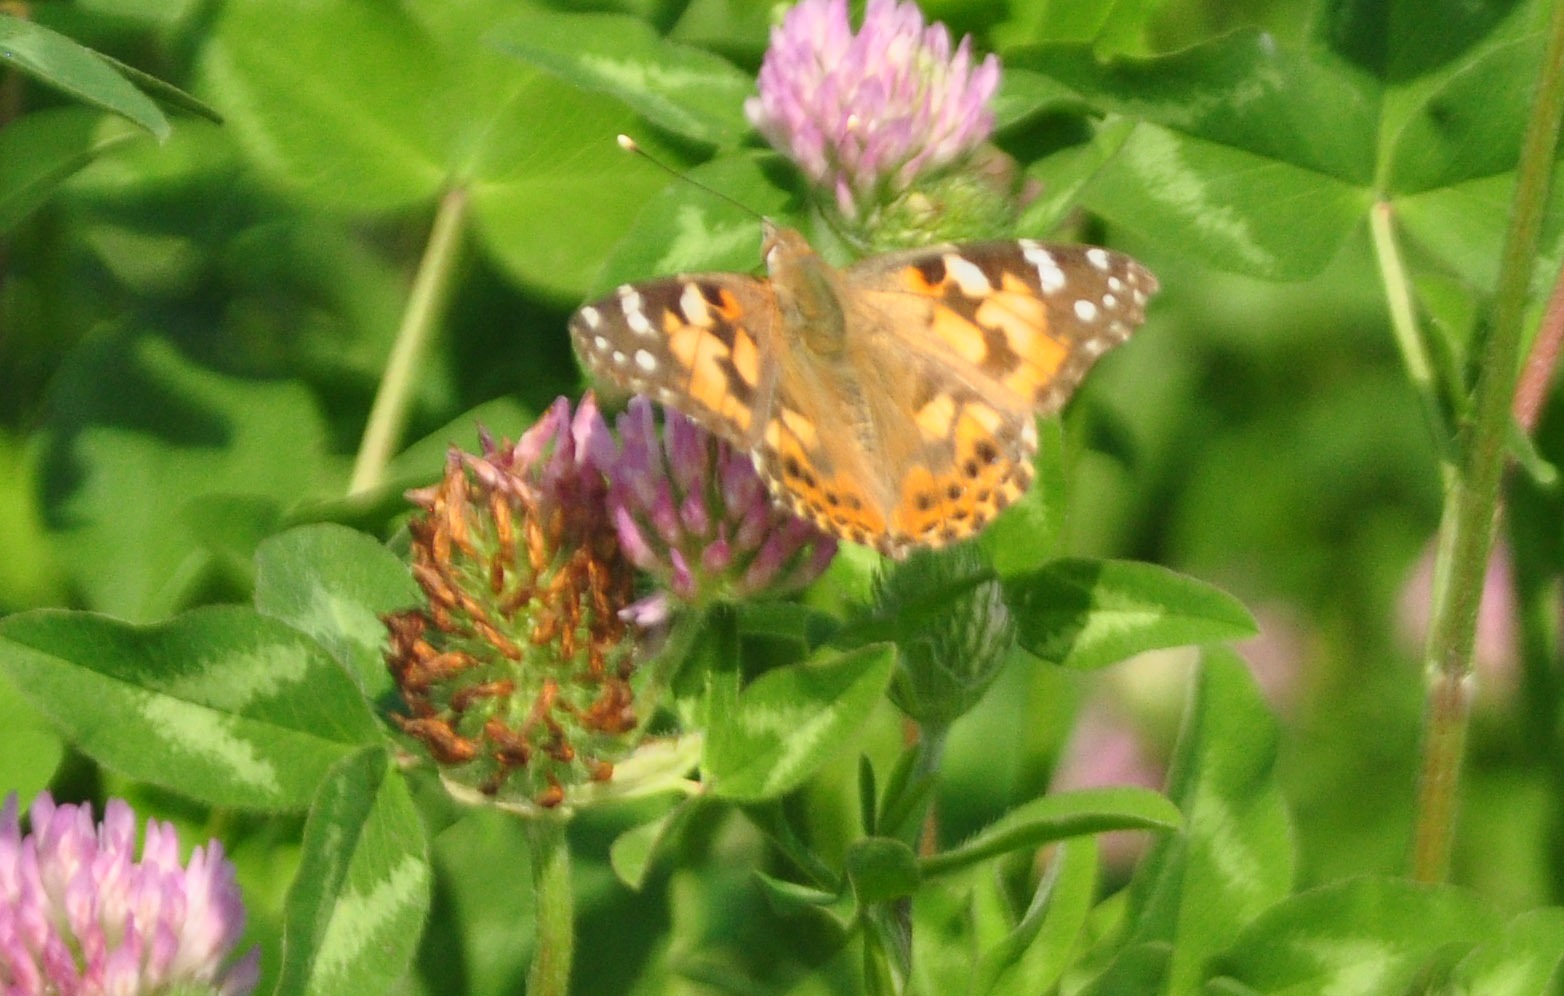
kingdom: Animalia
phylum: Arthropoda
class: Insecta
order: Lepidoptera
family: Nymphalidae
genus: Vanessa
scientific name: Vanessa cardui
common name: Tidselsommerfugl
